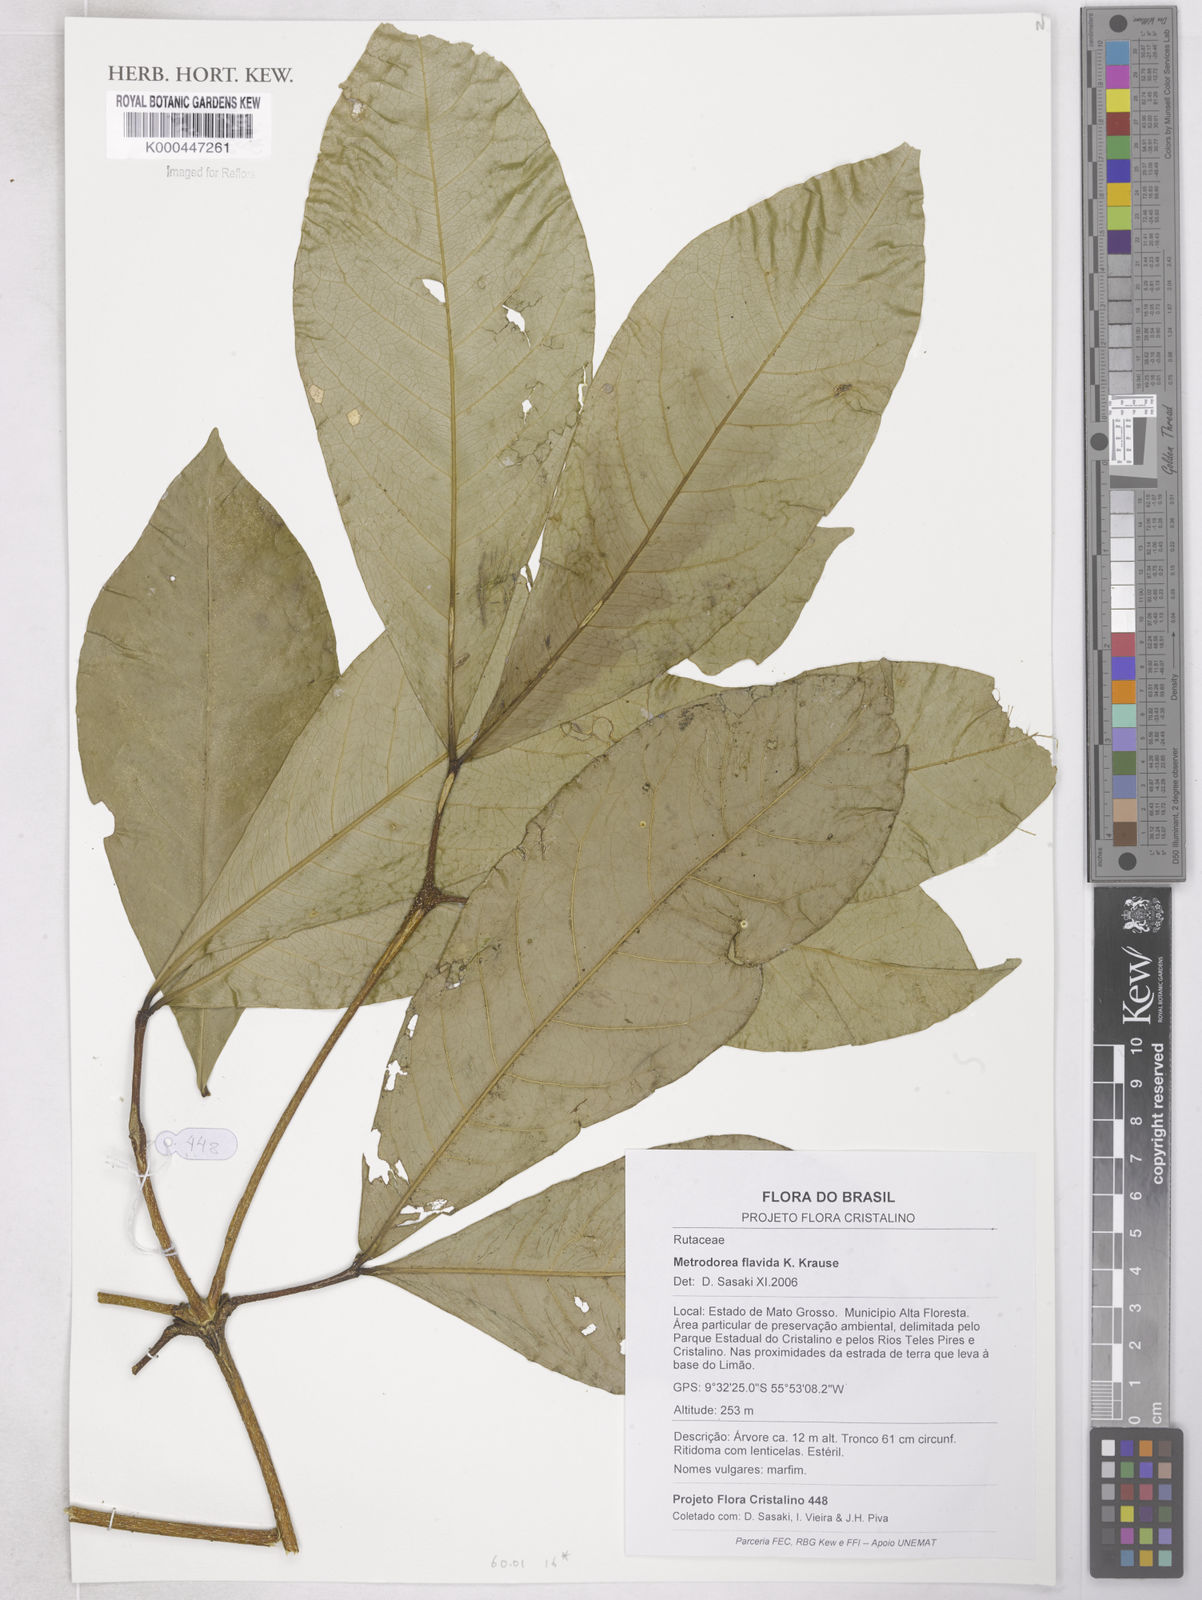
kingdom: Plantae
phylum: Tracheophyta
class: Magnoliopsida
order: Sapindales
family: Rutaceae
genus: Metrodorea
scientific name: Metrodorea flavida
